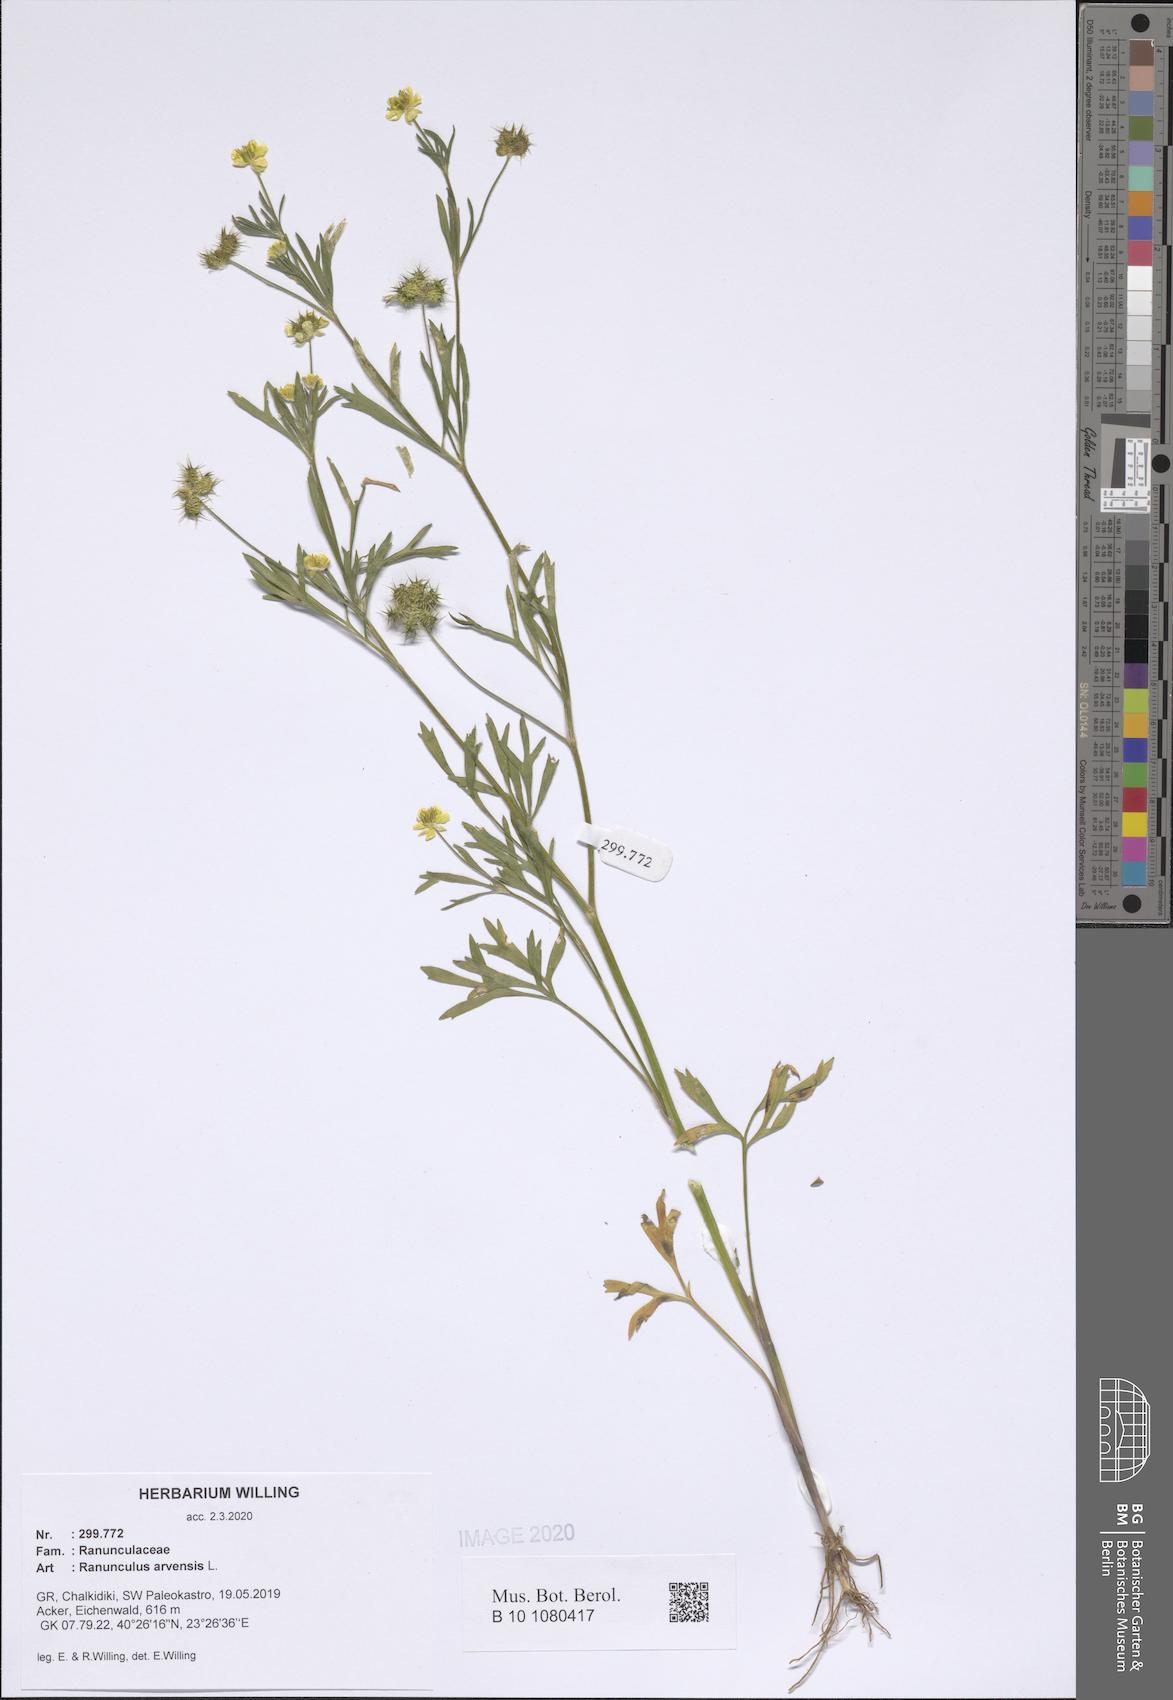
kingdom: Plantae
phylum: Tracheophyta
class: Magnoliopsida
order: Ranunculales
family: Ranunculaceae
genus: Ranunculus
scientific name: Ranunculus arvensis
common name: Corn buttercup
